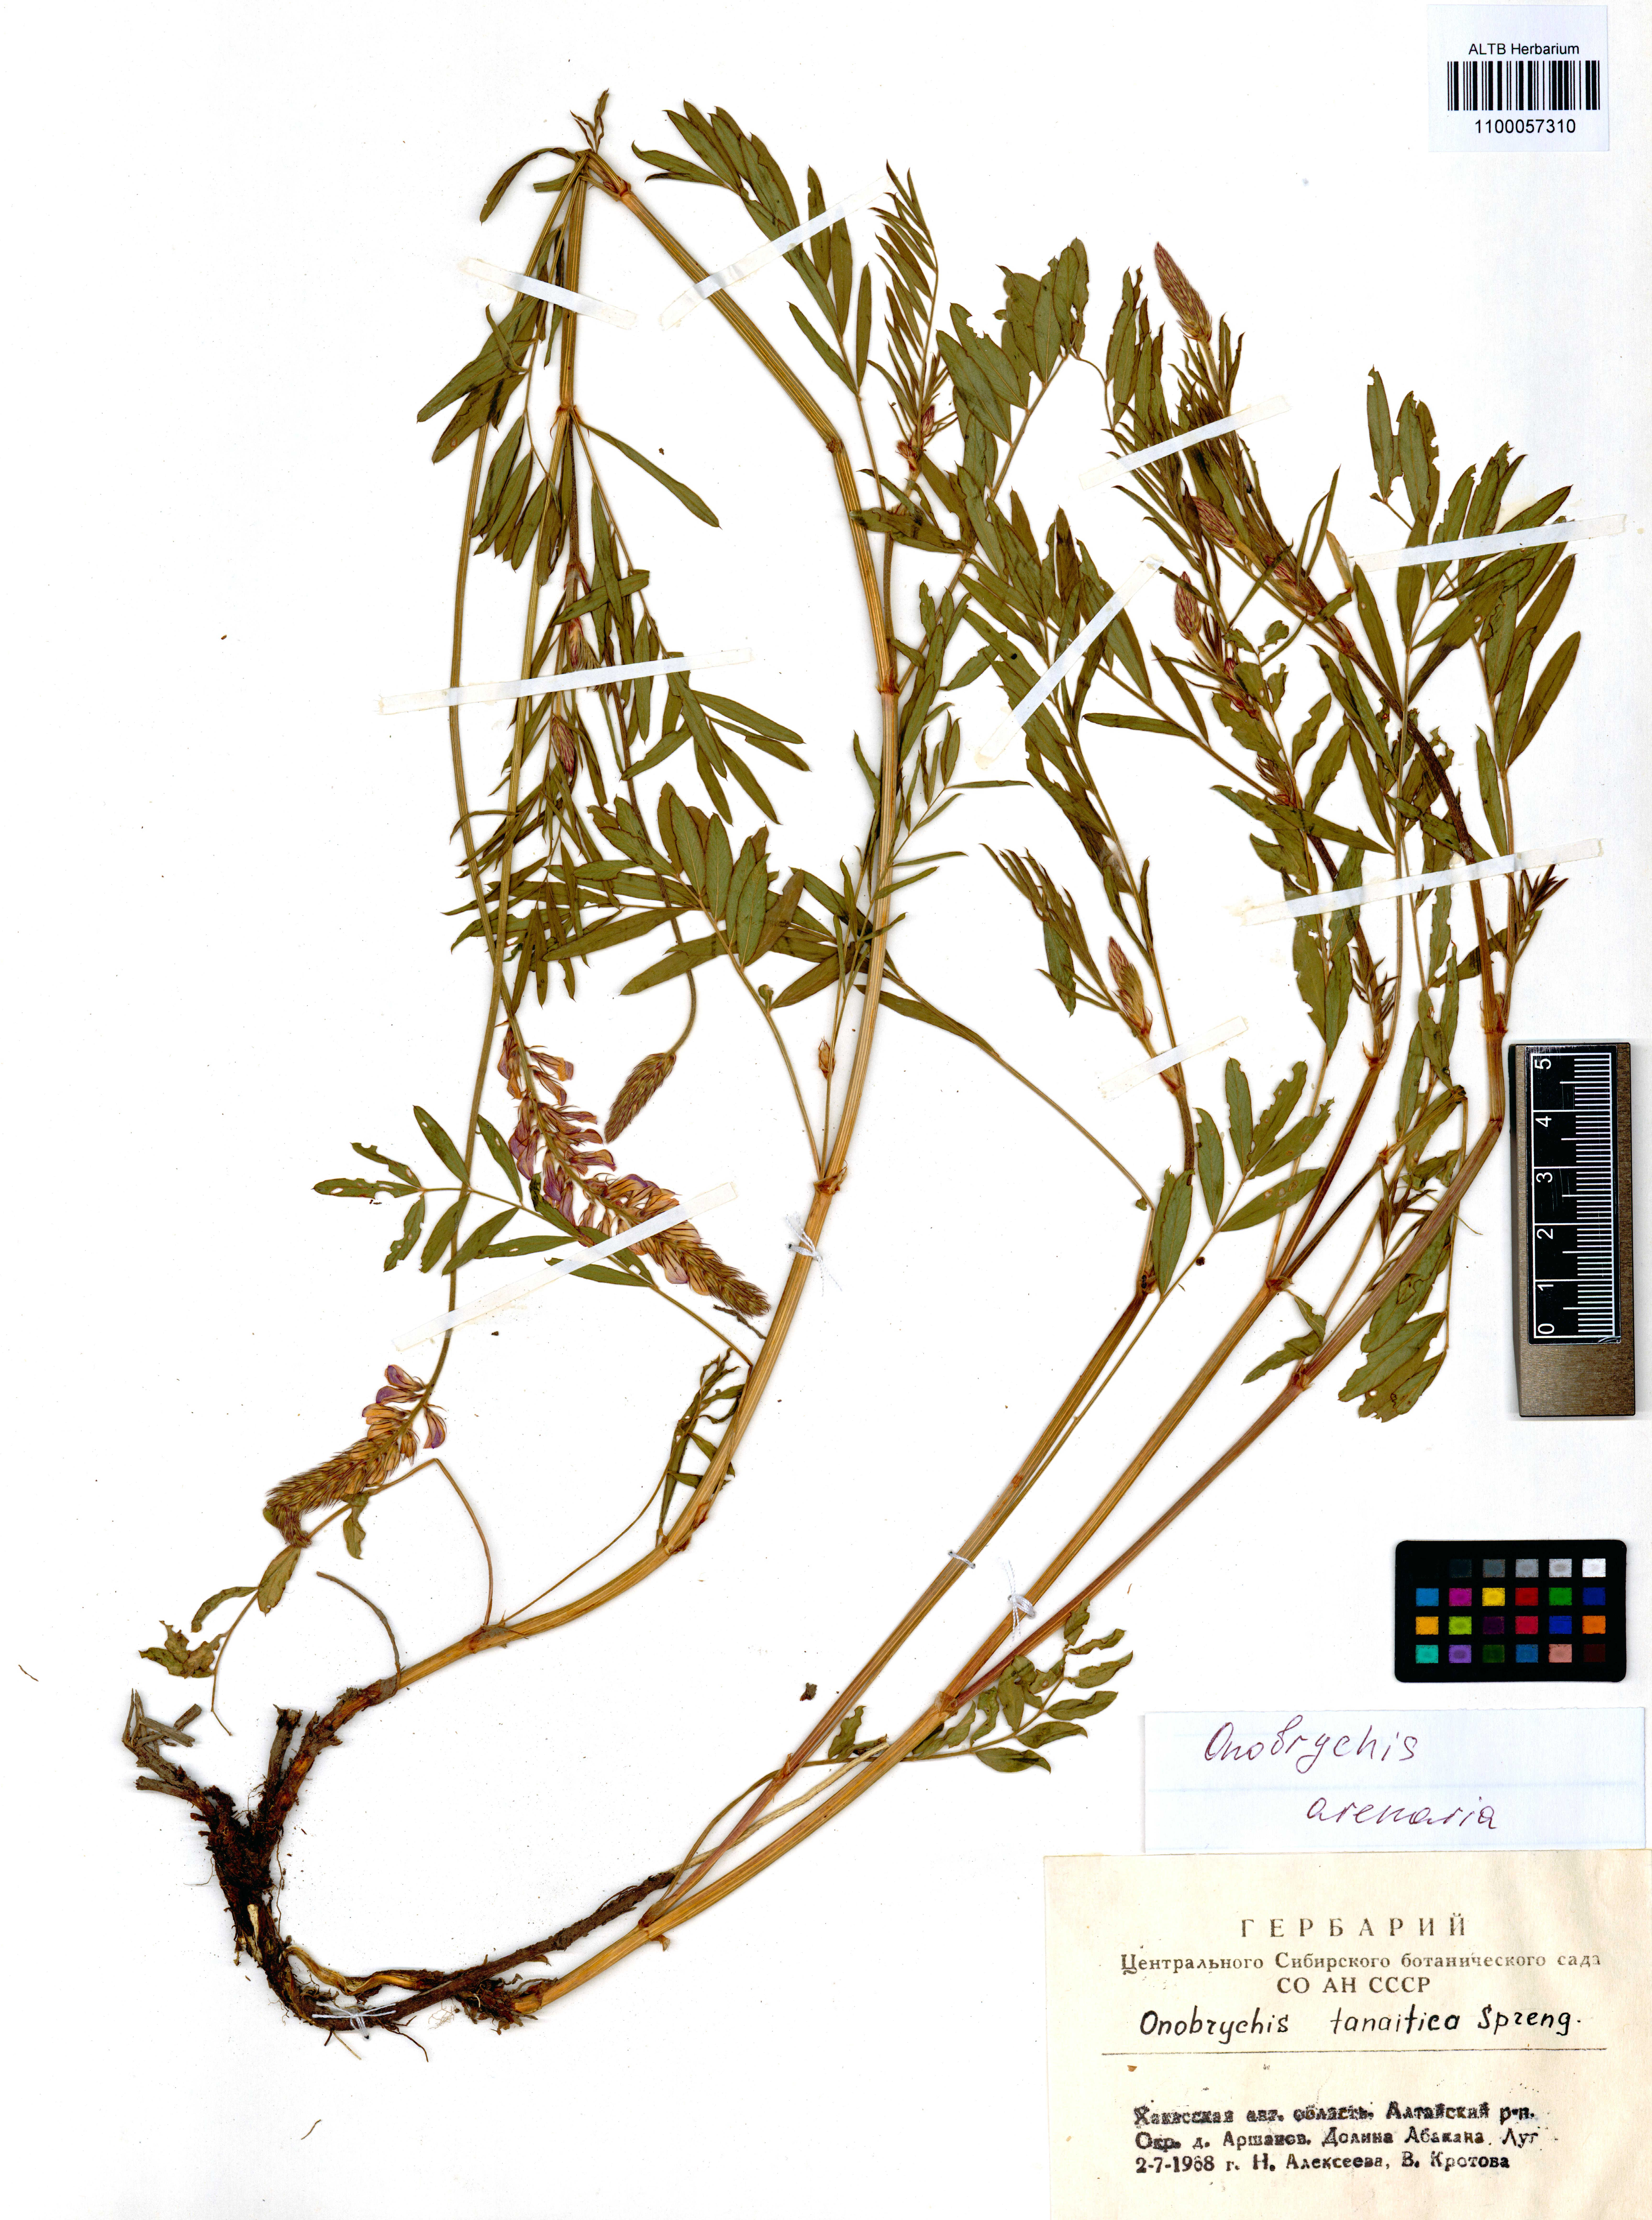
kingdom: Plantae
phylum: Tracheophyta
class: Magnoliopsida
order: Fabales
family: Fabaceae
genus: Onobrychis
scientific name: Onobrychis arenaria
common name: Sand esparcet
